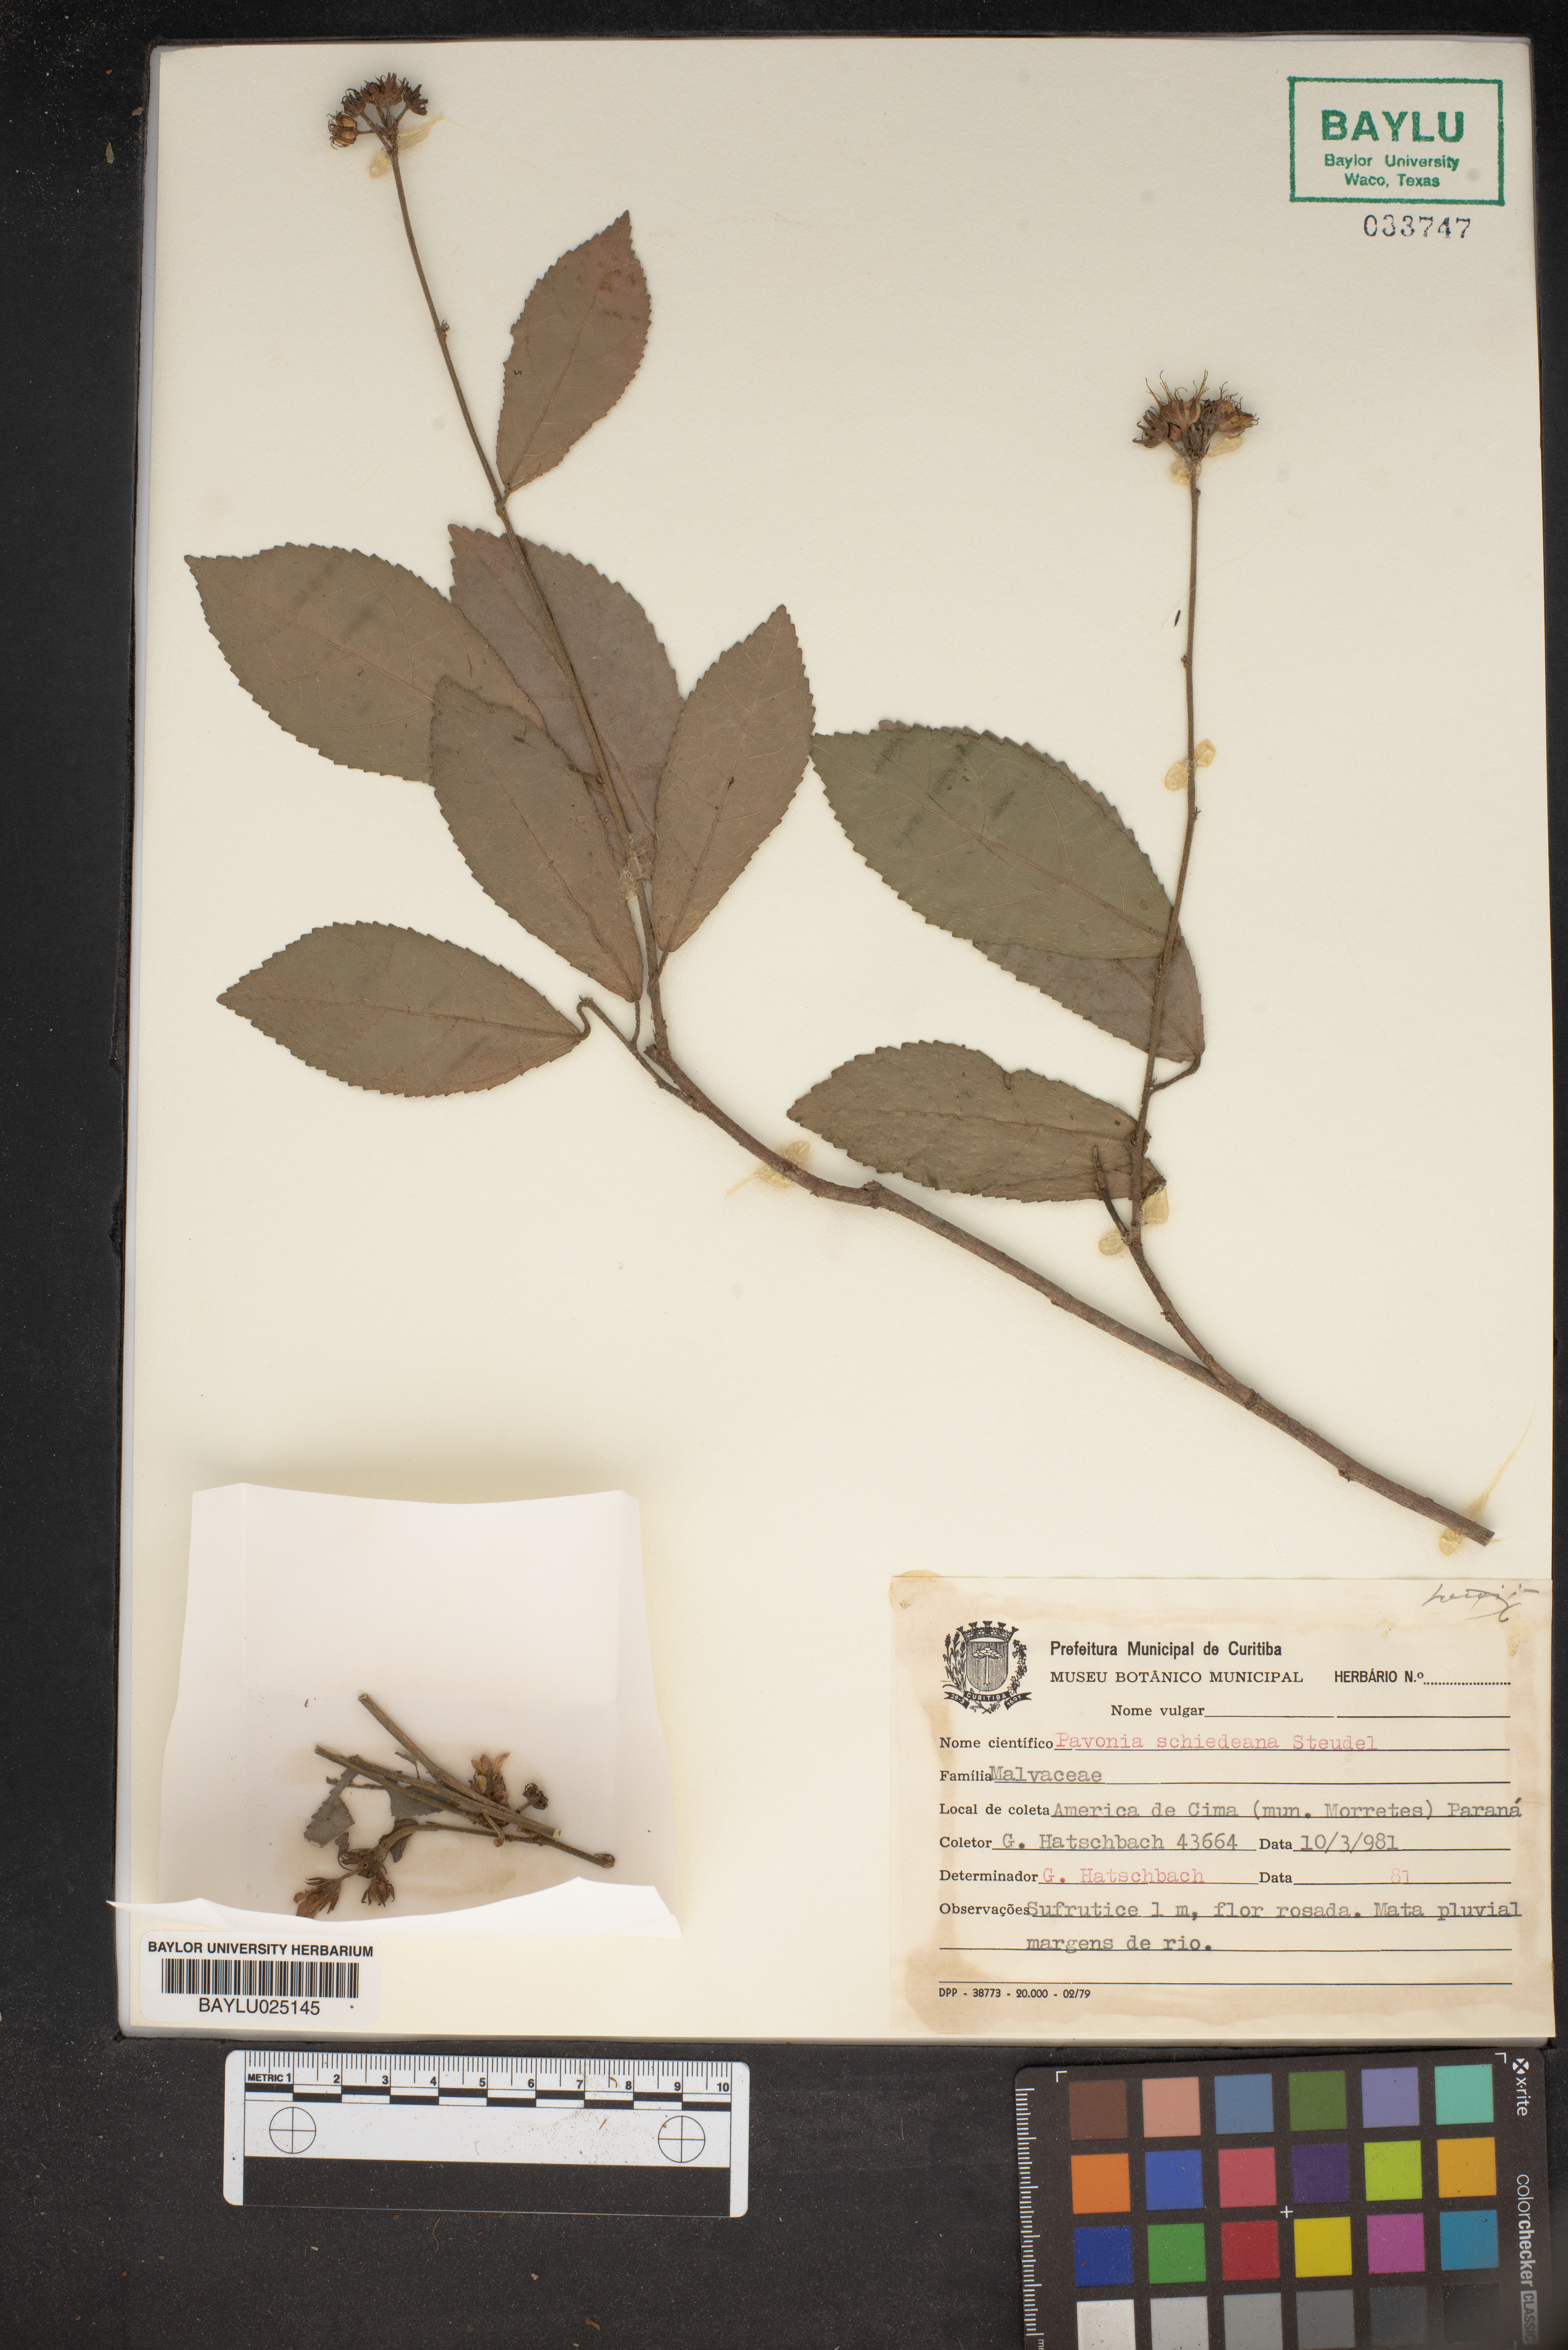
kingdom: Plantae
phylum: Tracheophyta
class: Magnoliopsida
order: Malvales
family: Malvaceae
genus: Pavonia
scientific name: Pavonia schiedeana
